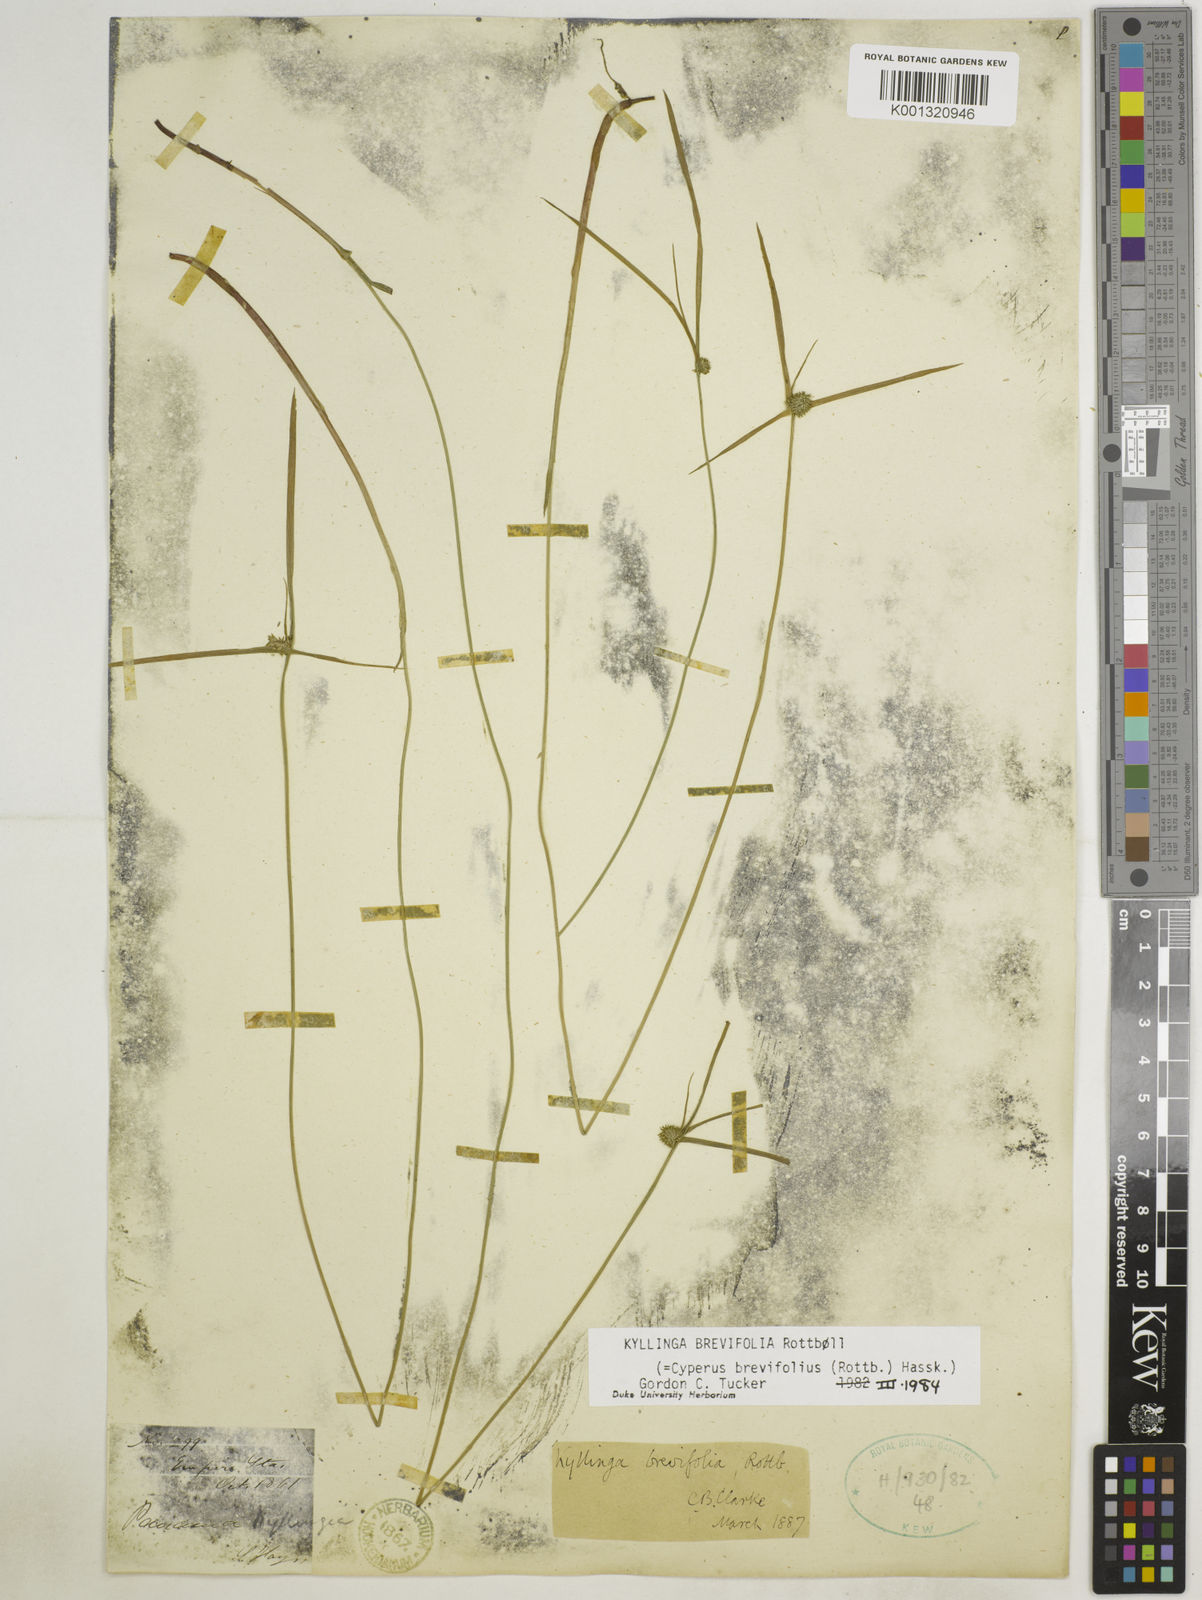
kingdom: Plantae
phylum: Tracheophyta
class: Liliopsida
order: Poales
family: Cyperaceae
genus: Cyperus
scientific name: Cyperus brevifolius
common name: Globe kyllinga
